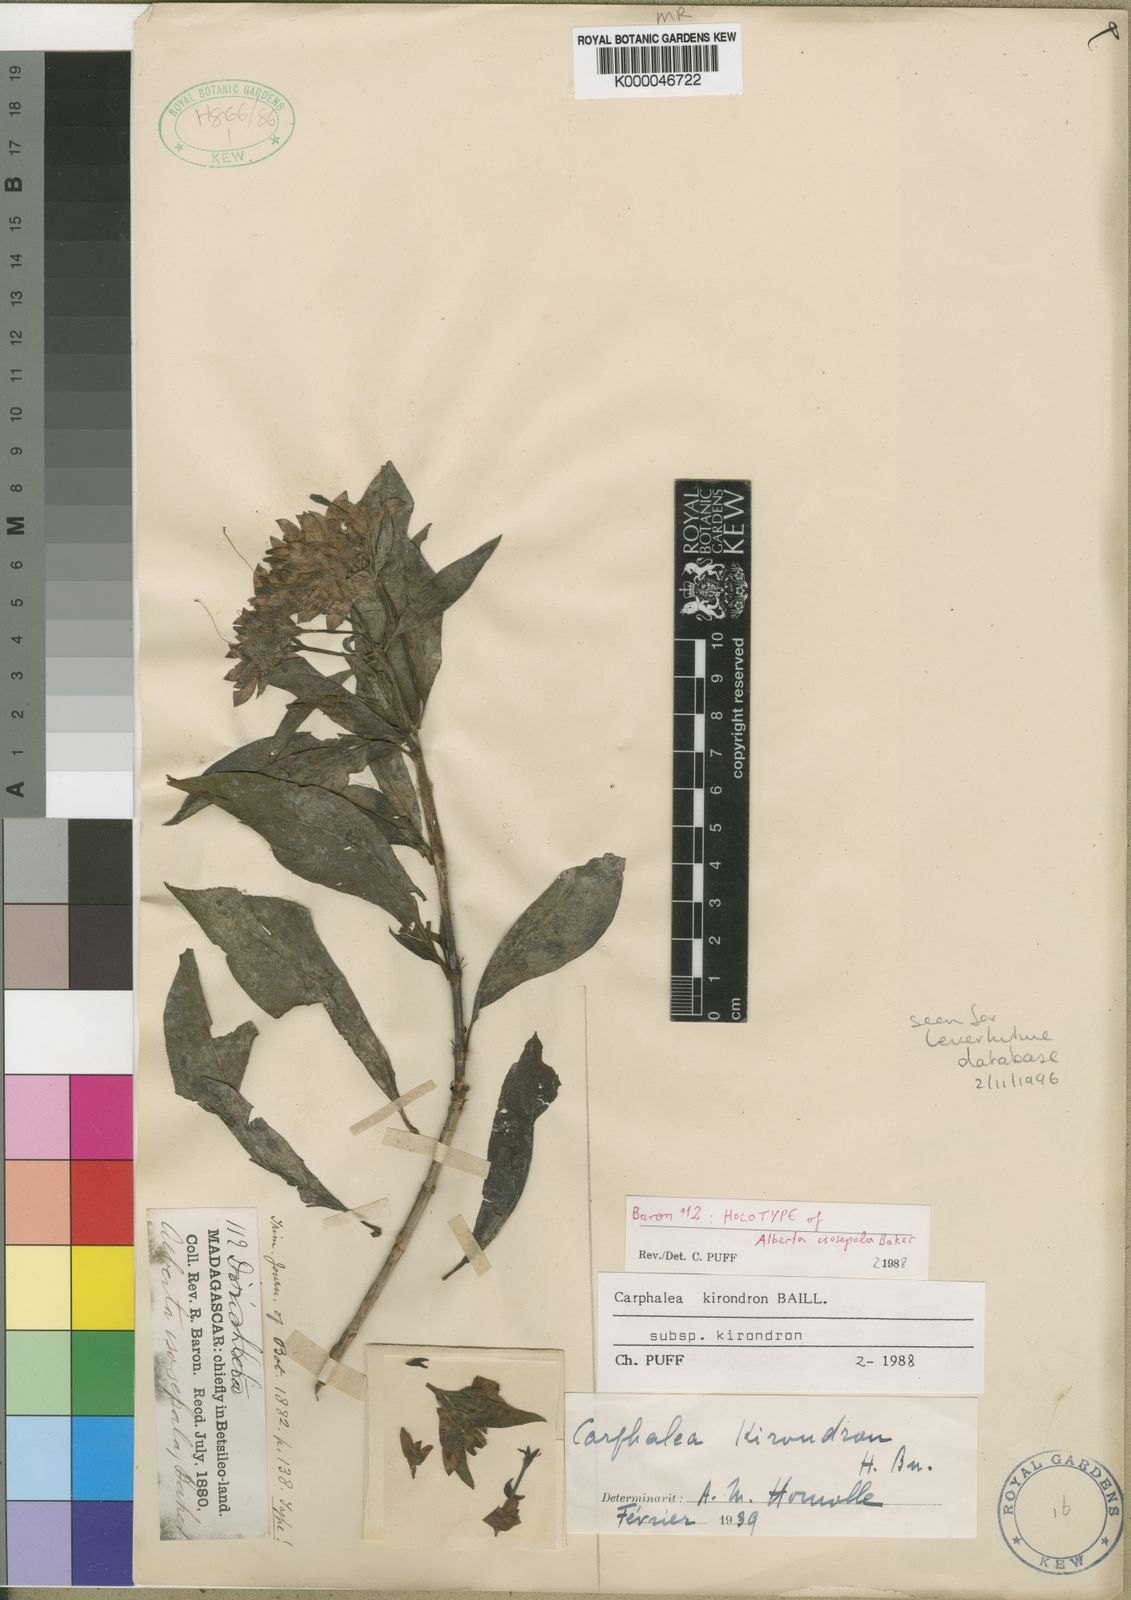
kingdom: Plantae
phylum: Tracheophyta
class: Magnoliopsida
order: Gentianales
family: Rubiaceae
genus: Paracarphalea
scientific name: Paracarphalea kirondron
